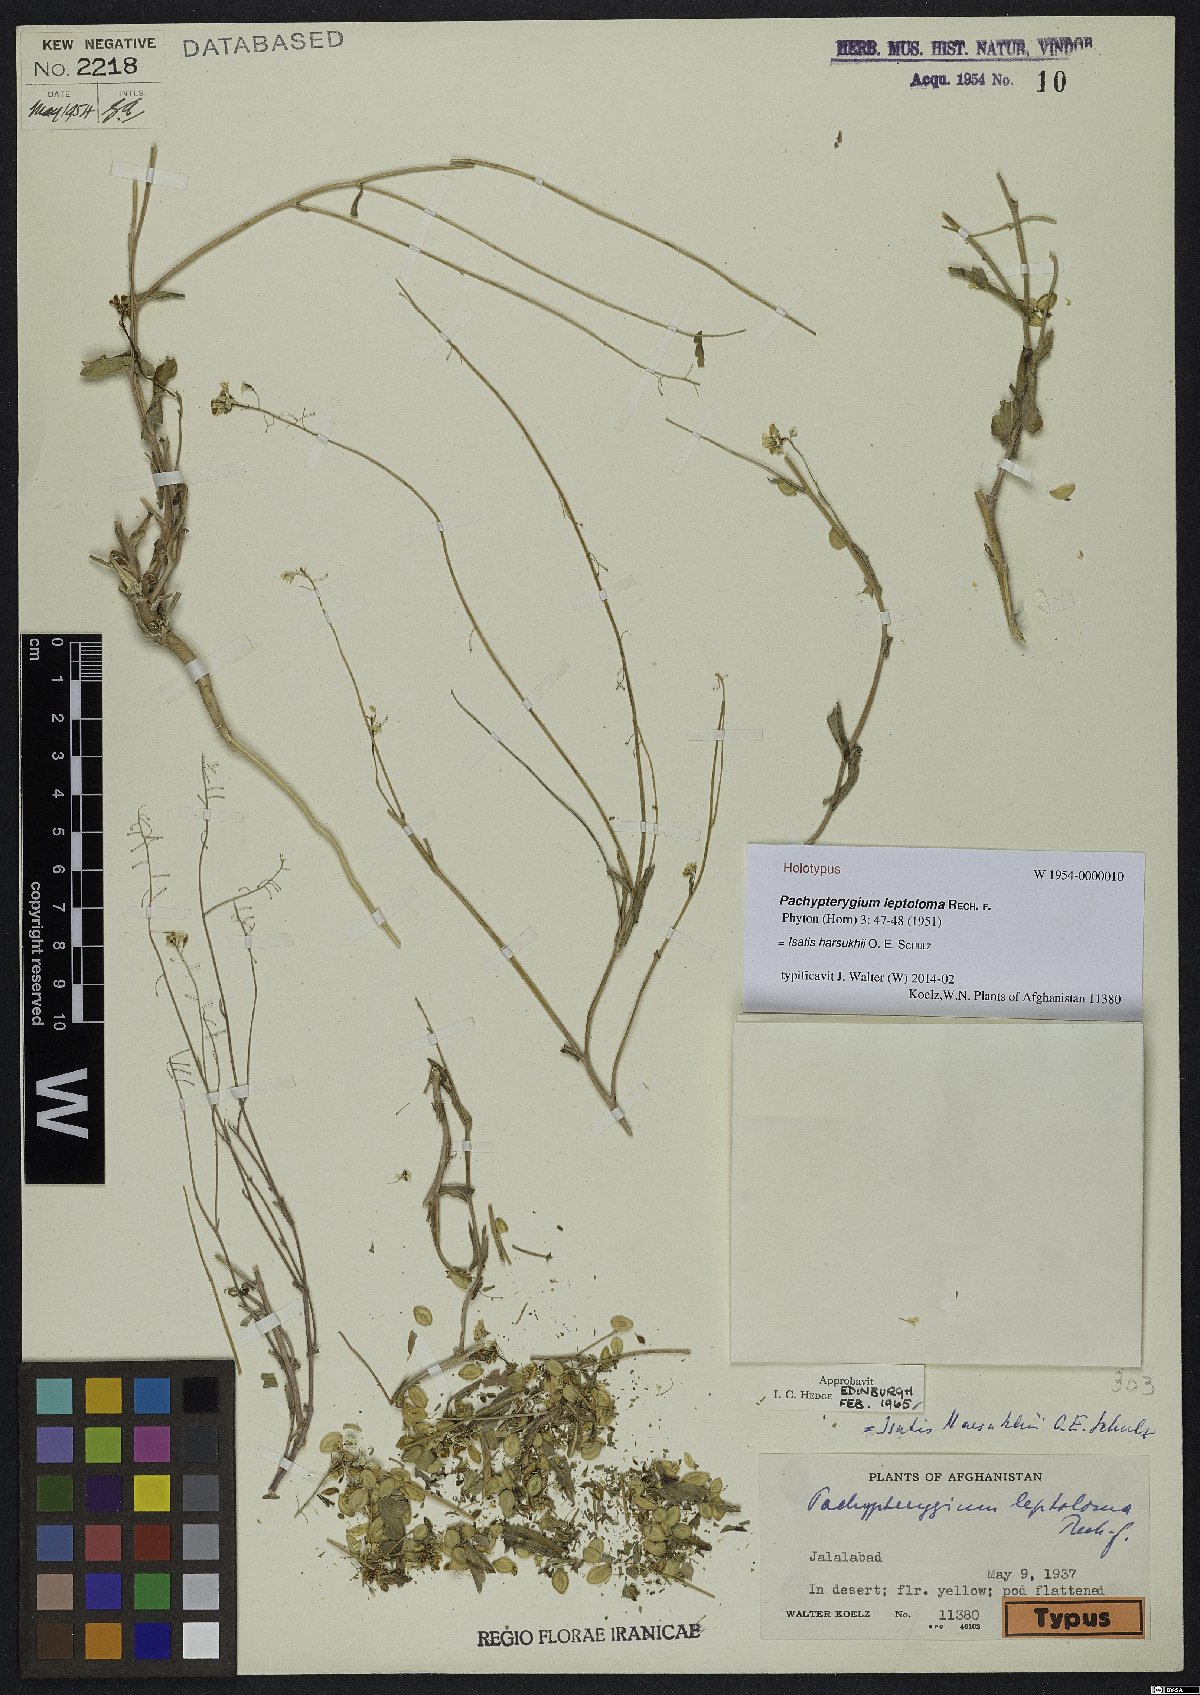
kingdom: Plantae
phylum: Tracheophyta
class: Magnoliopsida
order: Brassicales
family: Brassicaceae
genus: Isatis
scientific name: Isatis harsukhii
